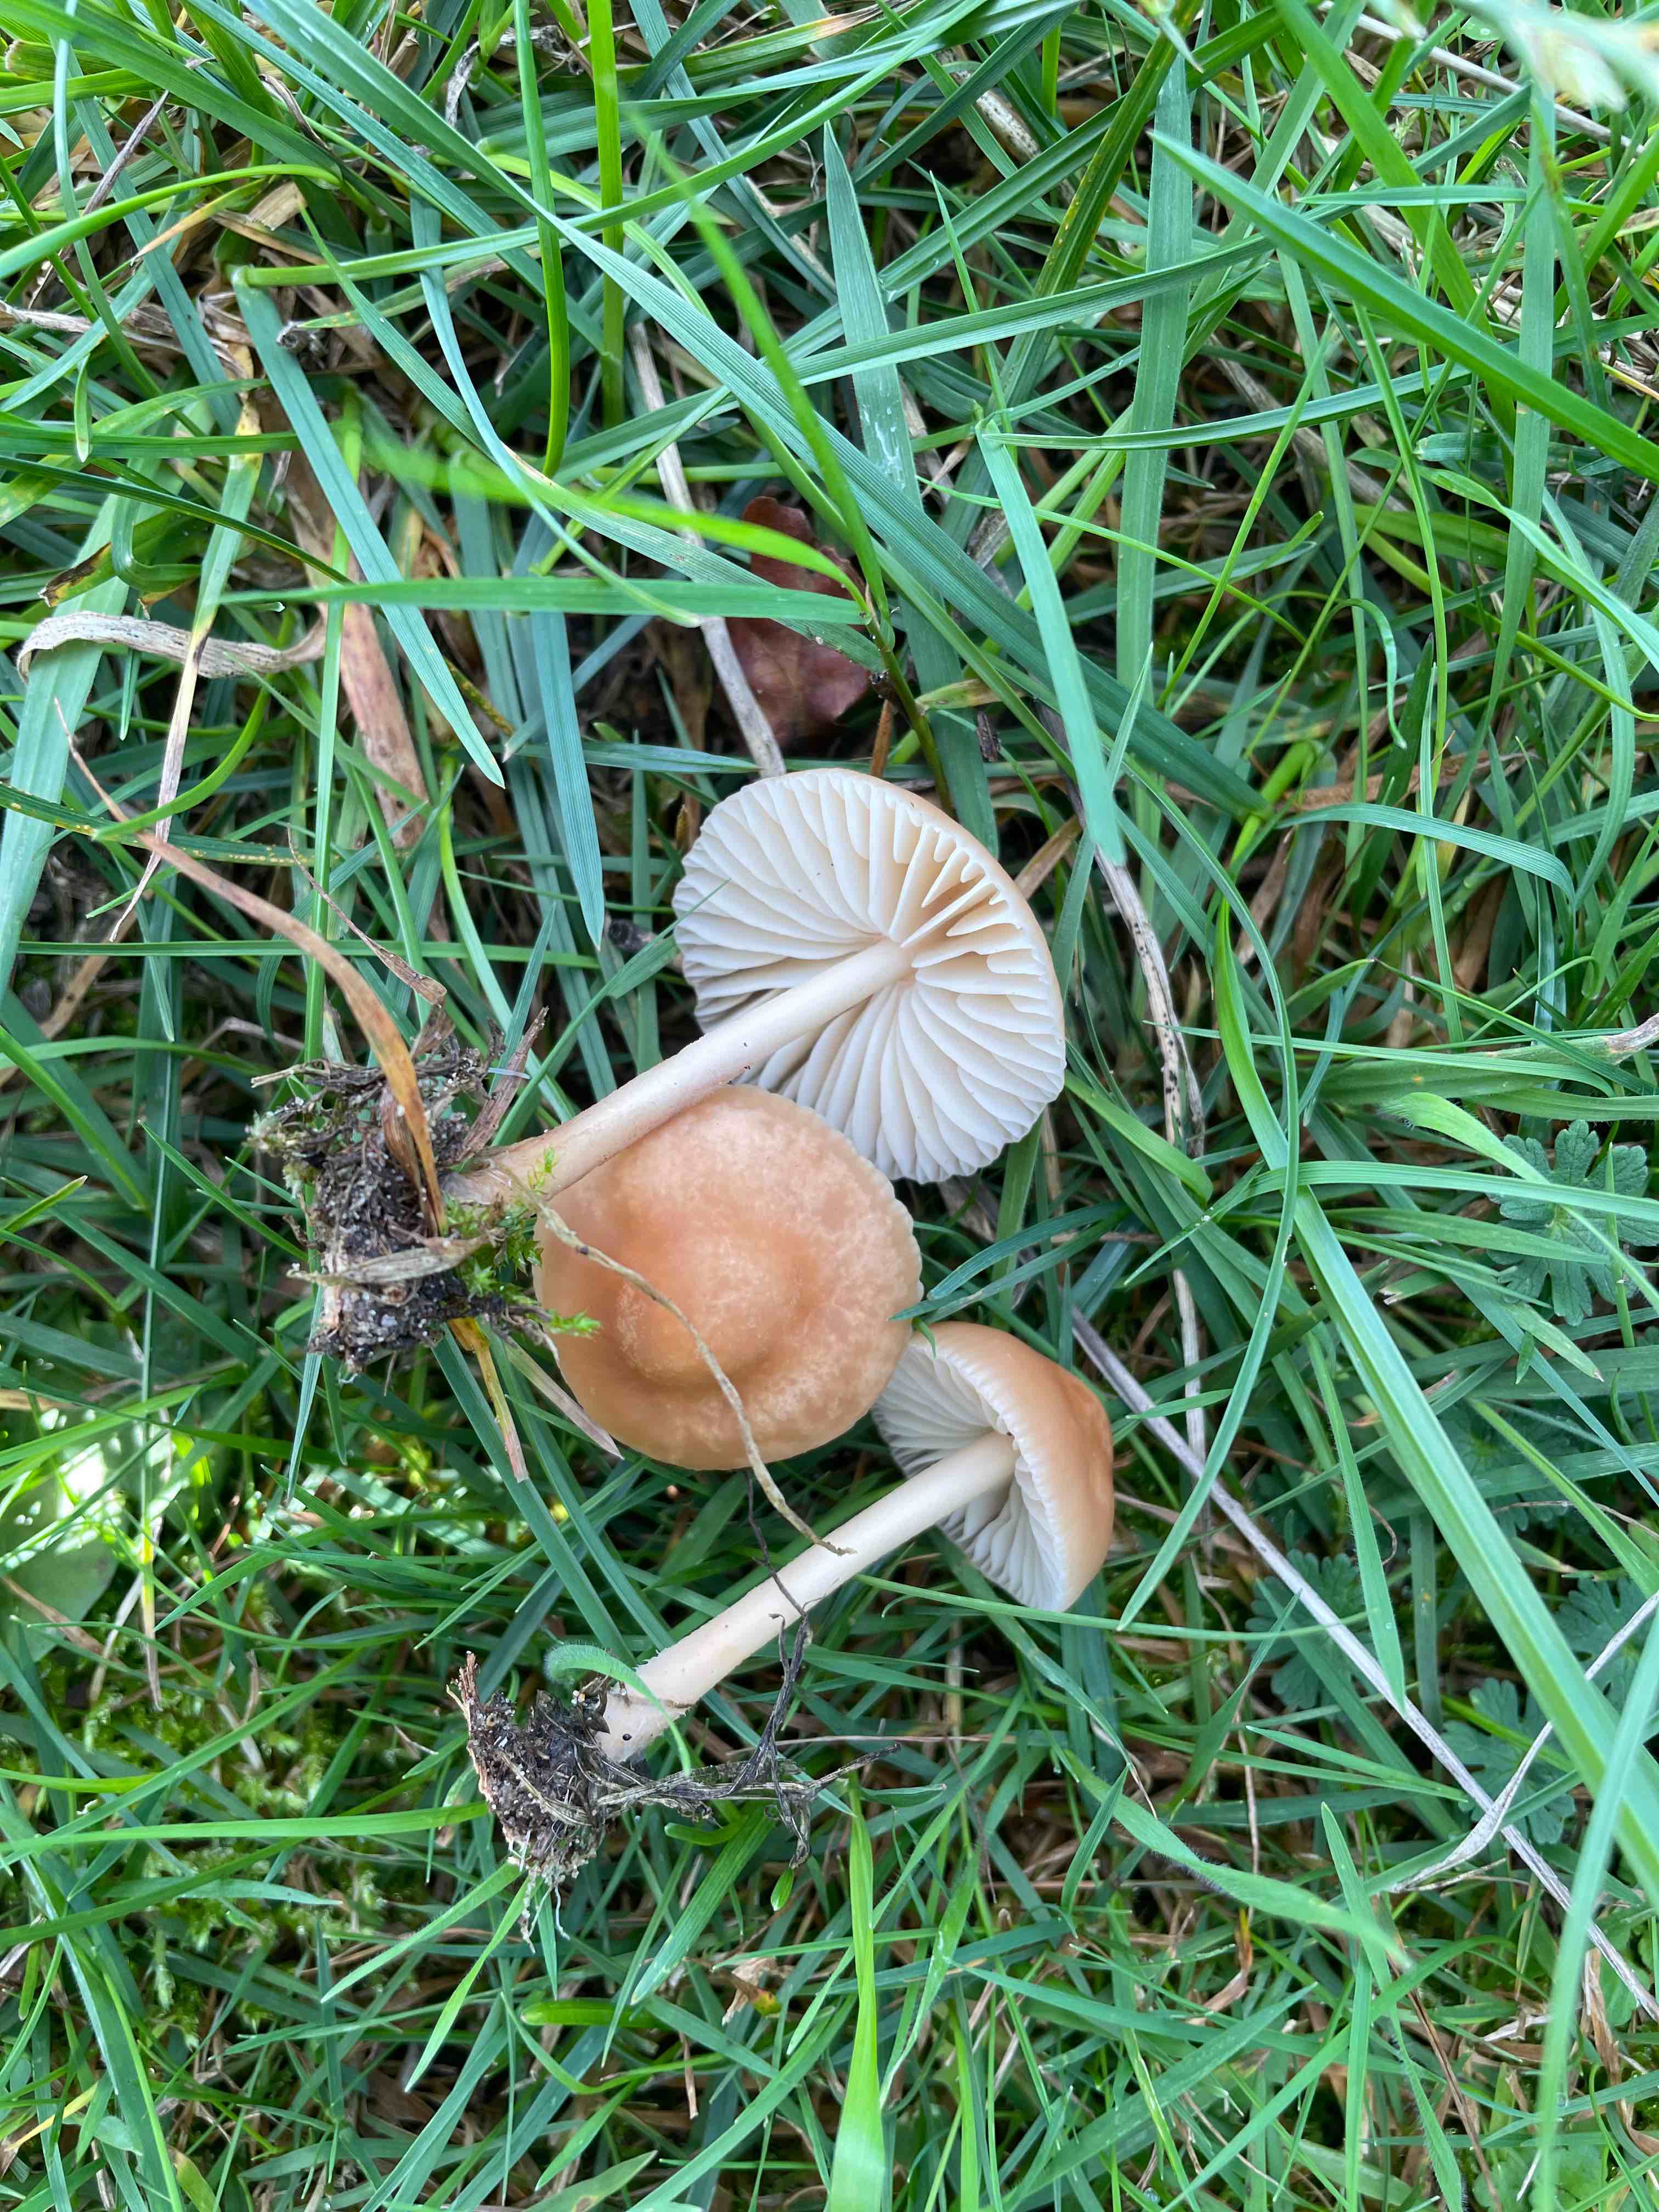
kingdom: Fungi
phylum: Basidiomycota
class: Agaricomycetes
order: Agaricales
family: Marasmiaceae
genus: Marasmius
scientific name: Marasmius oreades
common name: elledans-bruskhat
